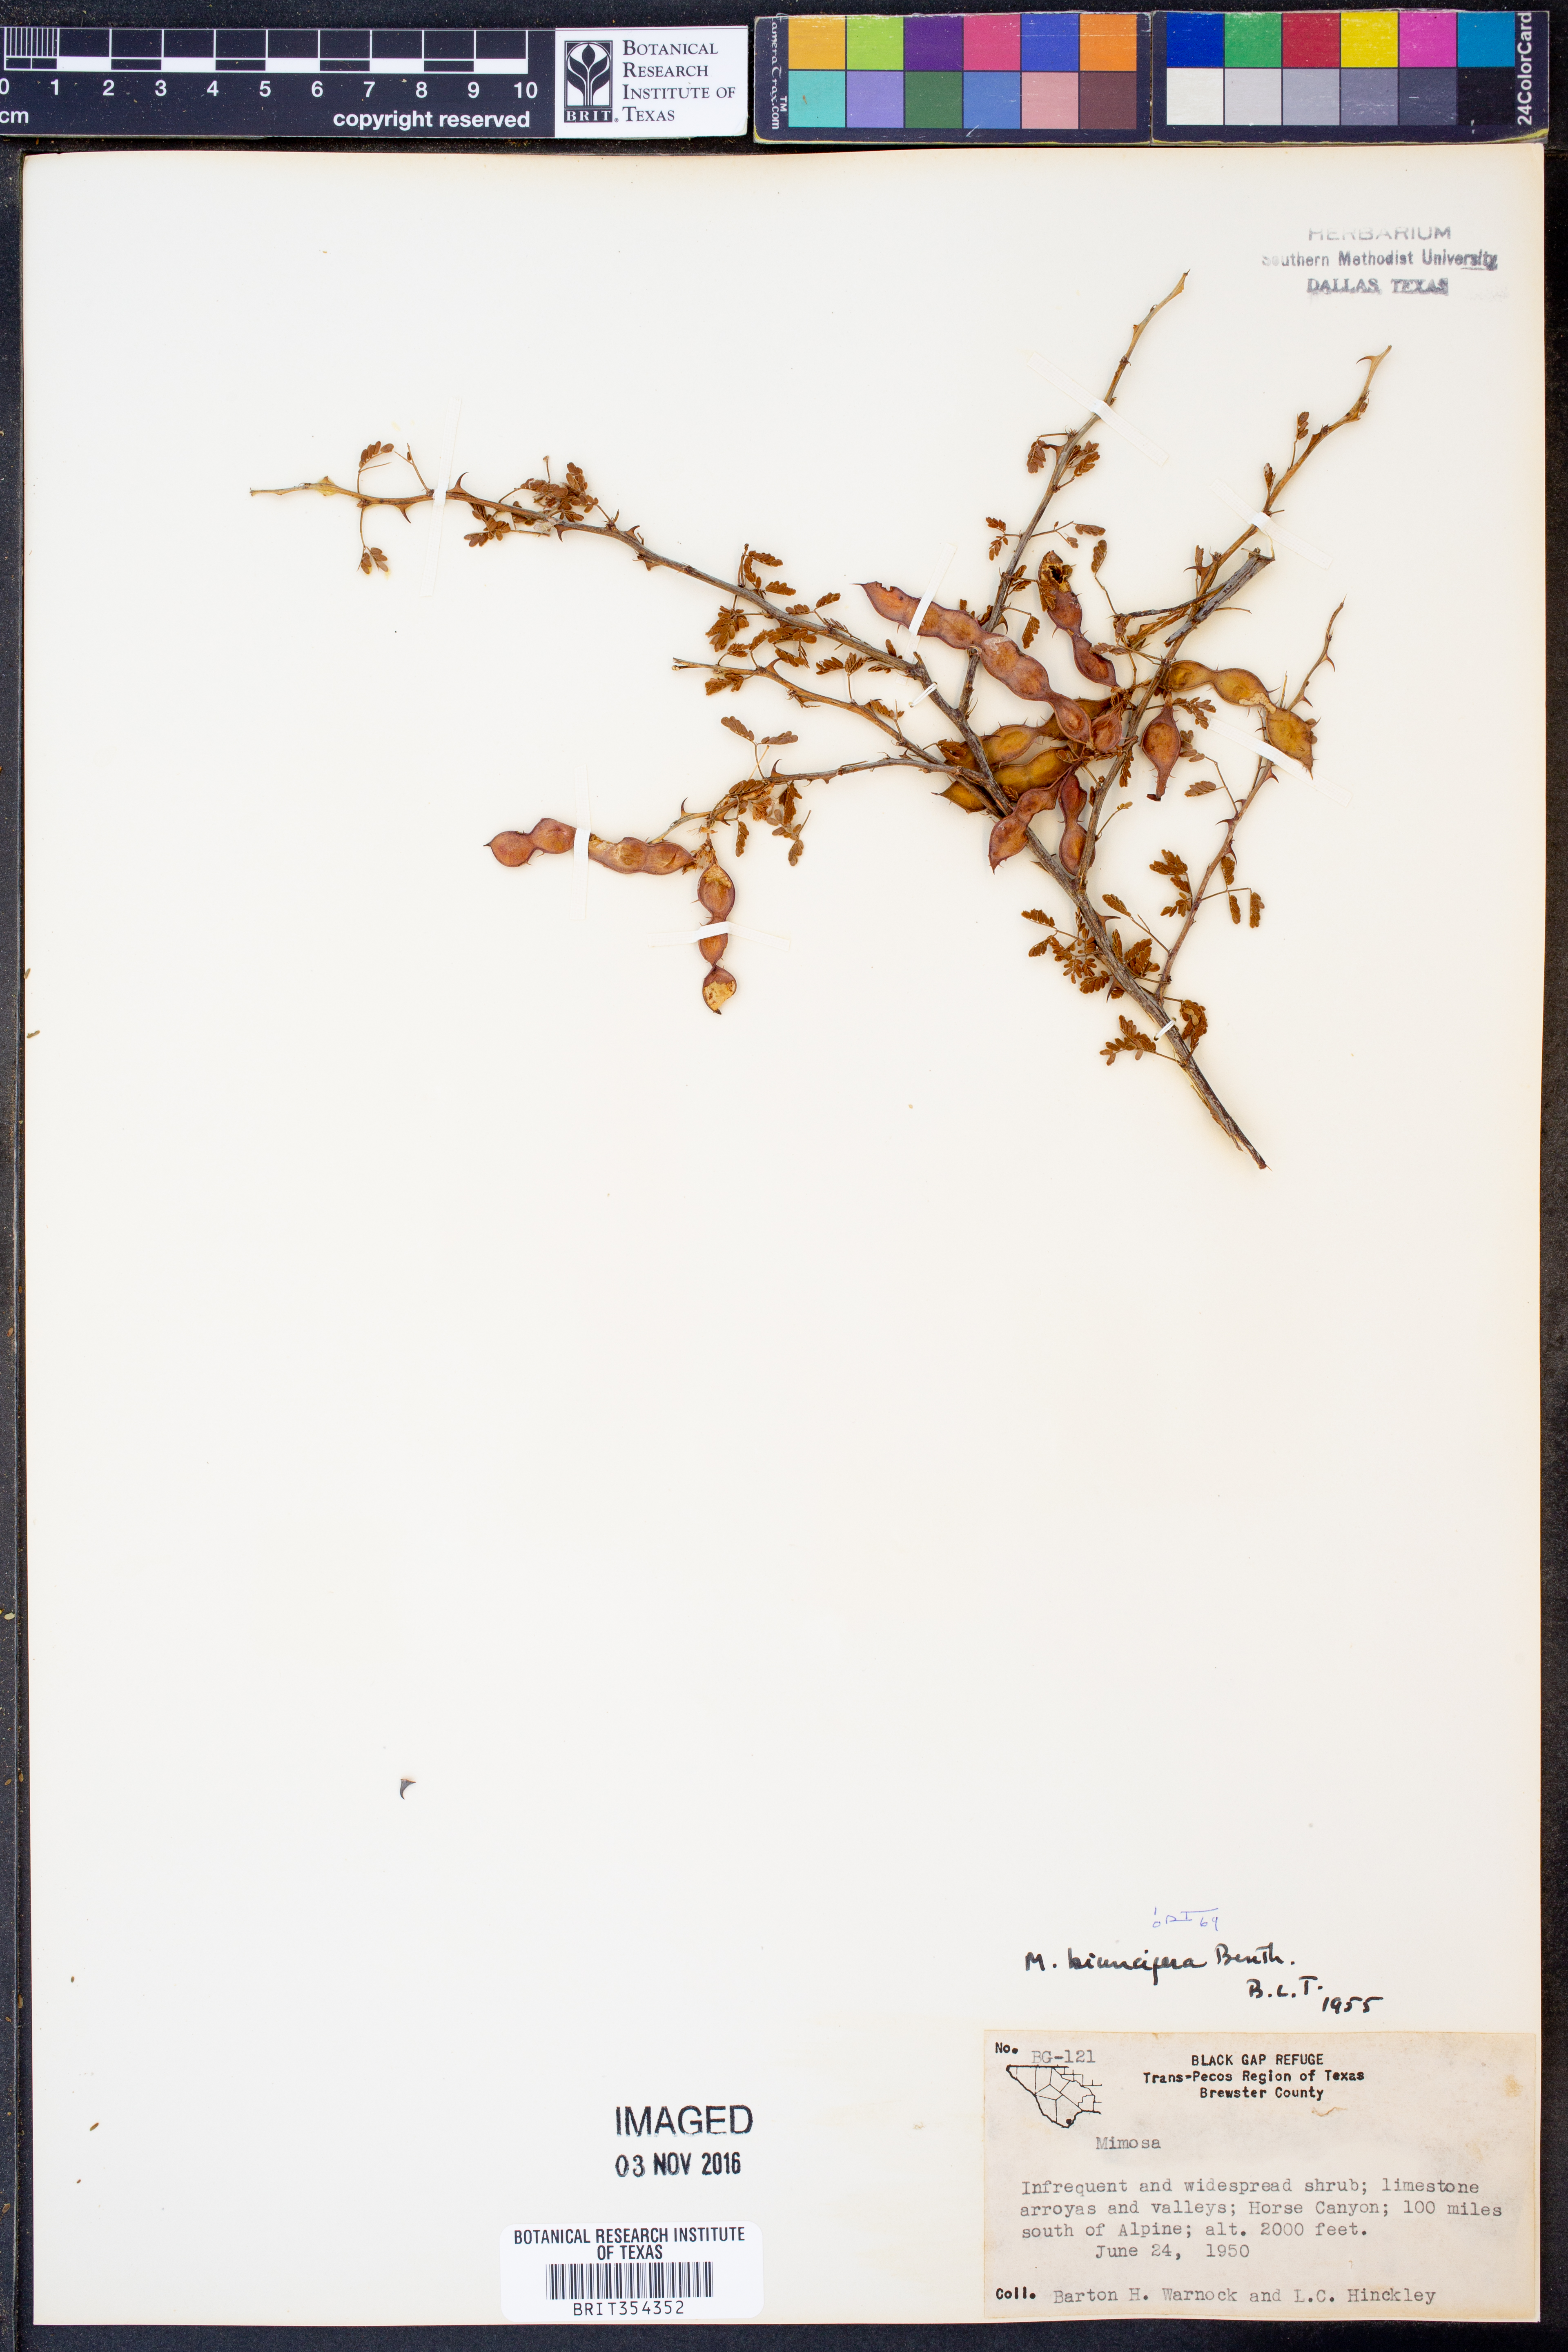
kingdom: Plantae
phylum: Tracheophyta
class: Magnoliopsida
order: Fabales
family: Fabaceae
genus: Mimosa
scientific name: Mimosa biuncifera
